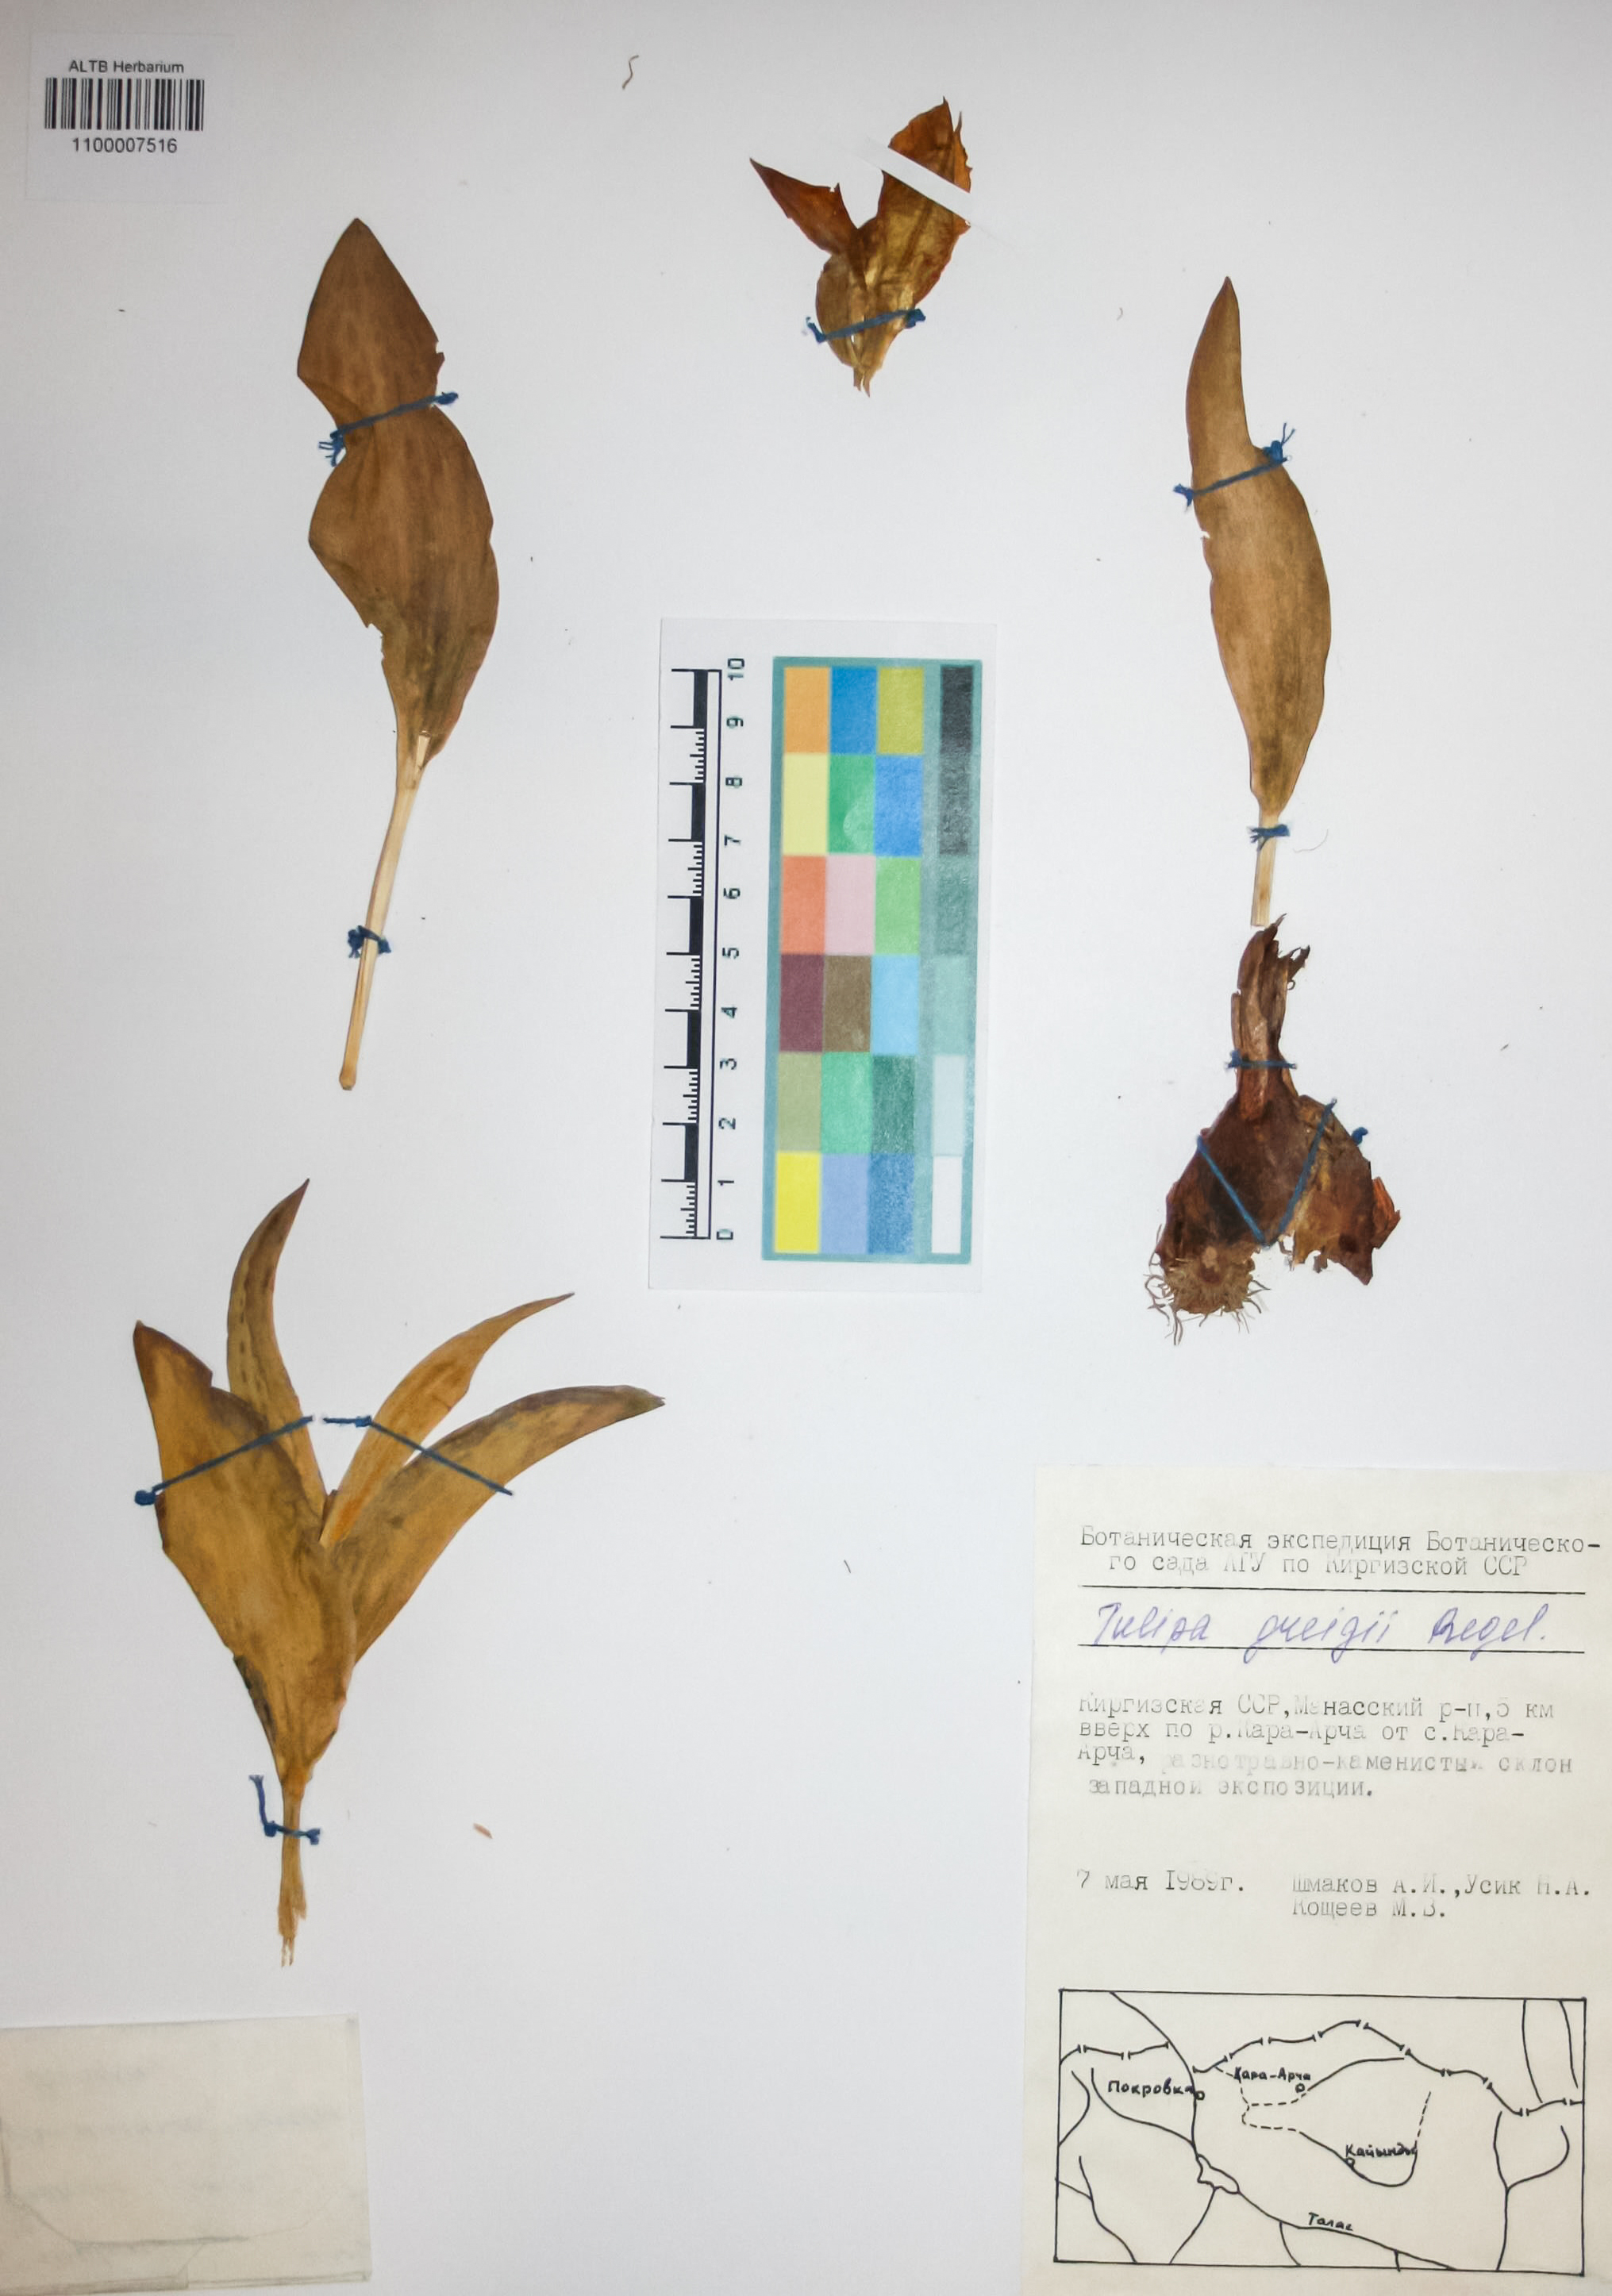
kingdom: Plantae
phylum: Tracheophyta
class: Liliopsida
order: Liliales
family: Liliaceae
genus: Tulipa
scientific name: Tulipa greigii
